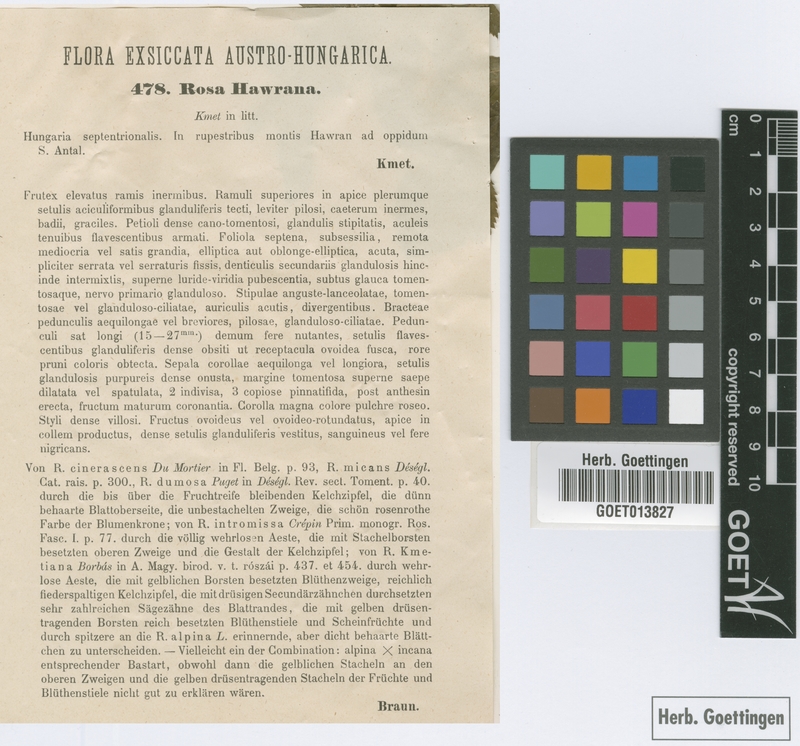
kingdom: Plantae
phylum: Tracheophyta
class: Magnoliopsida
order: Rosales
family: Rosaceae
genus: Rosa
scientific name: Rosa pseudoscabriuscula
